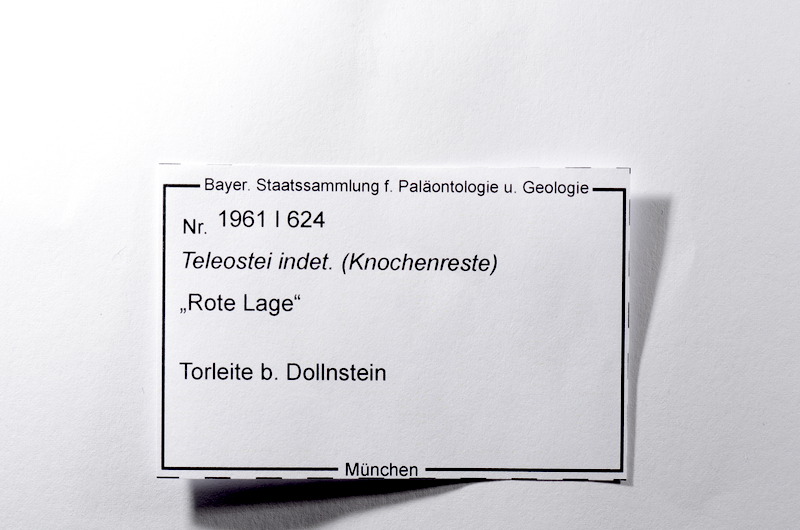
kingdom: Animalia
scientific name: Animalia
